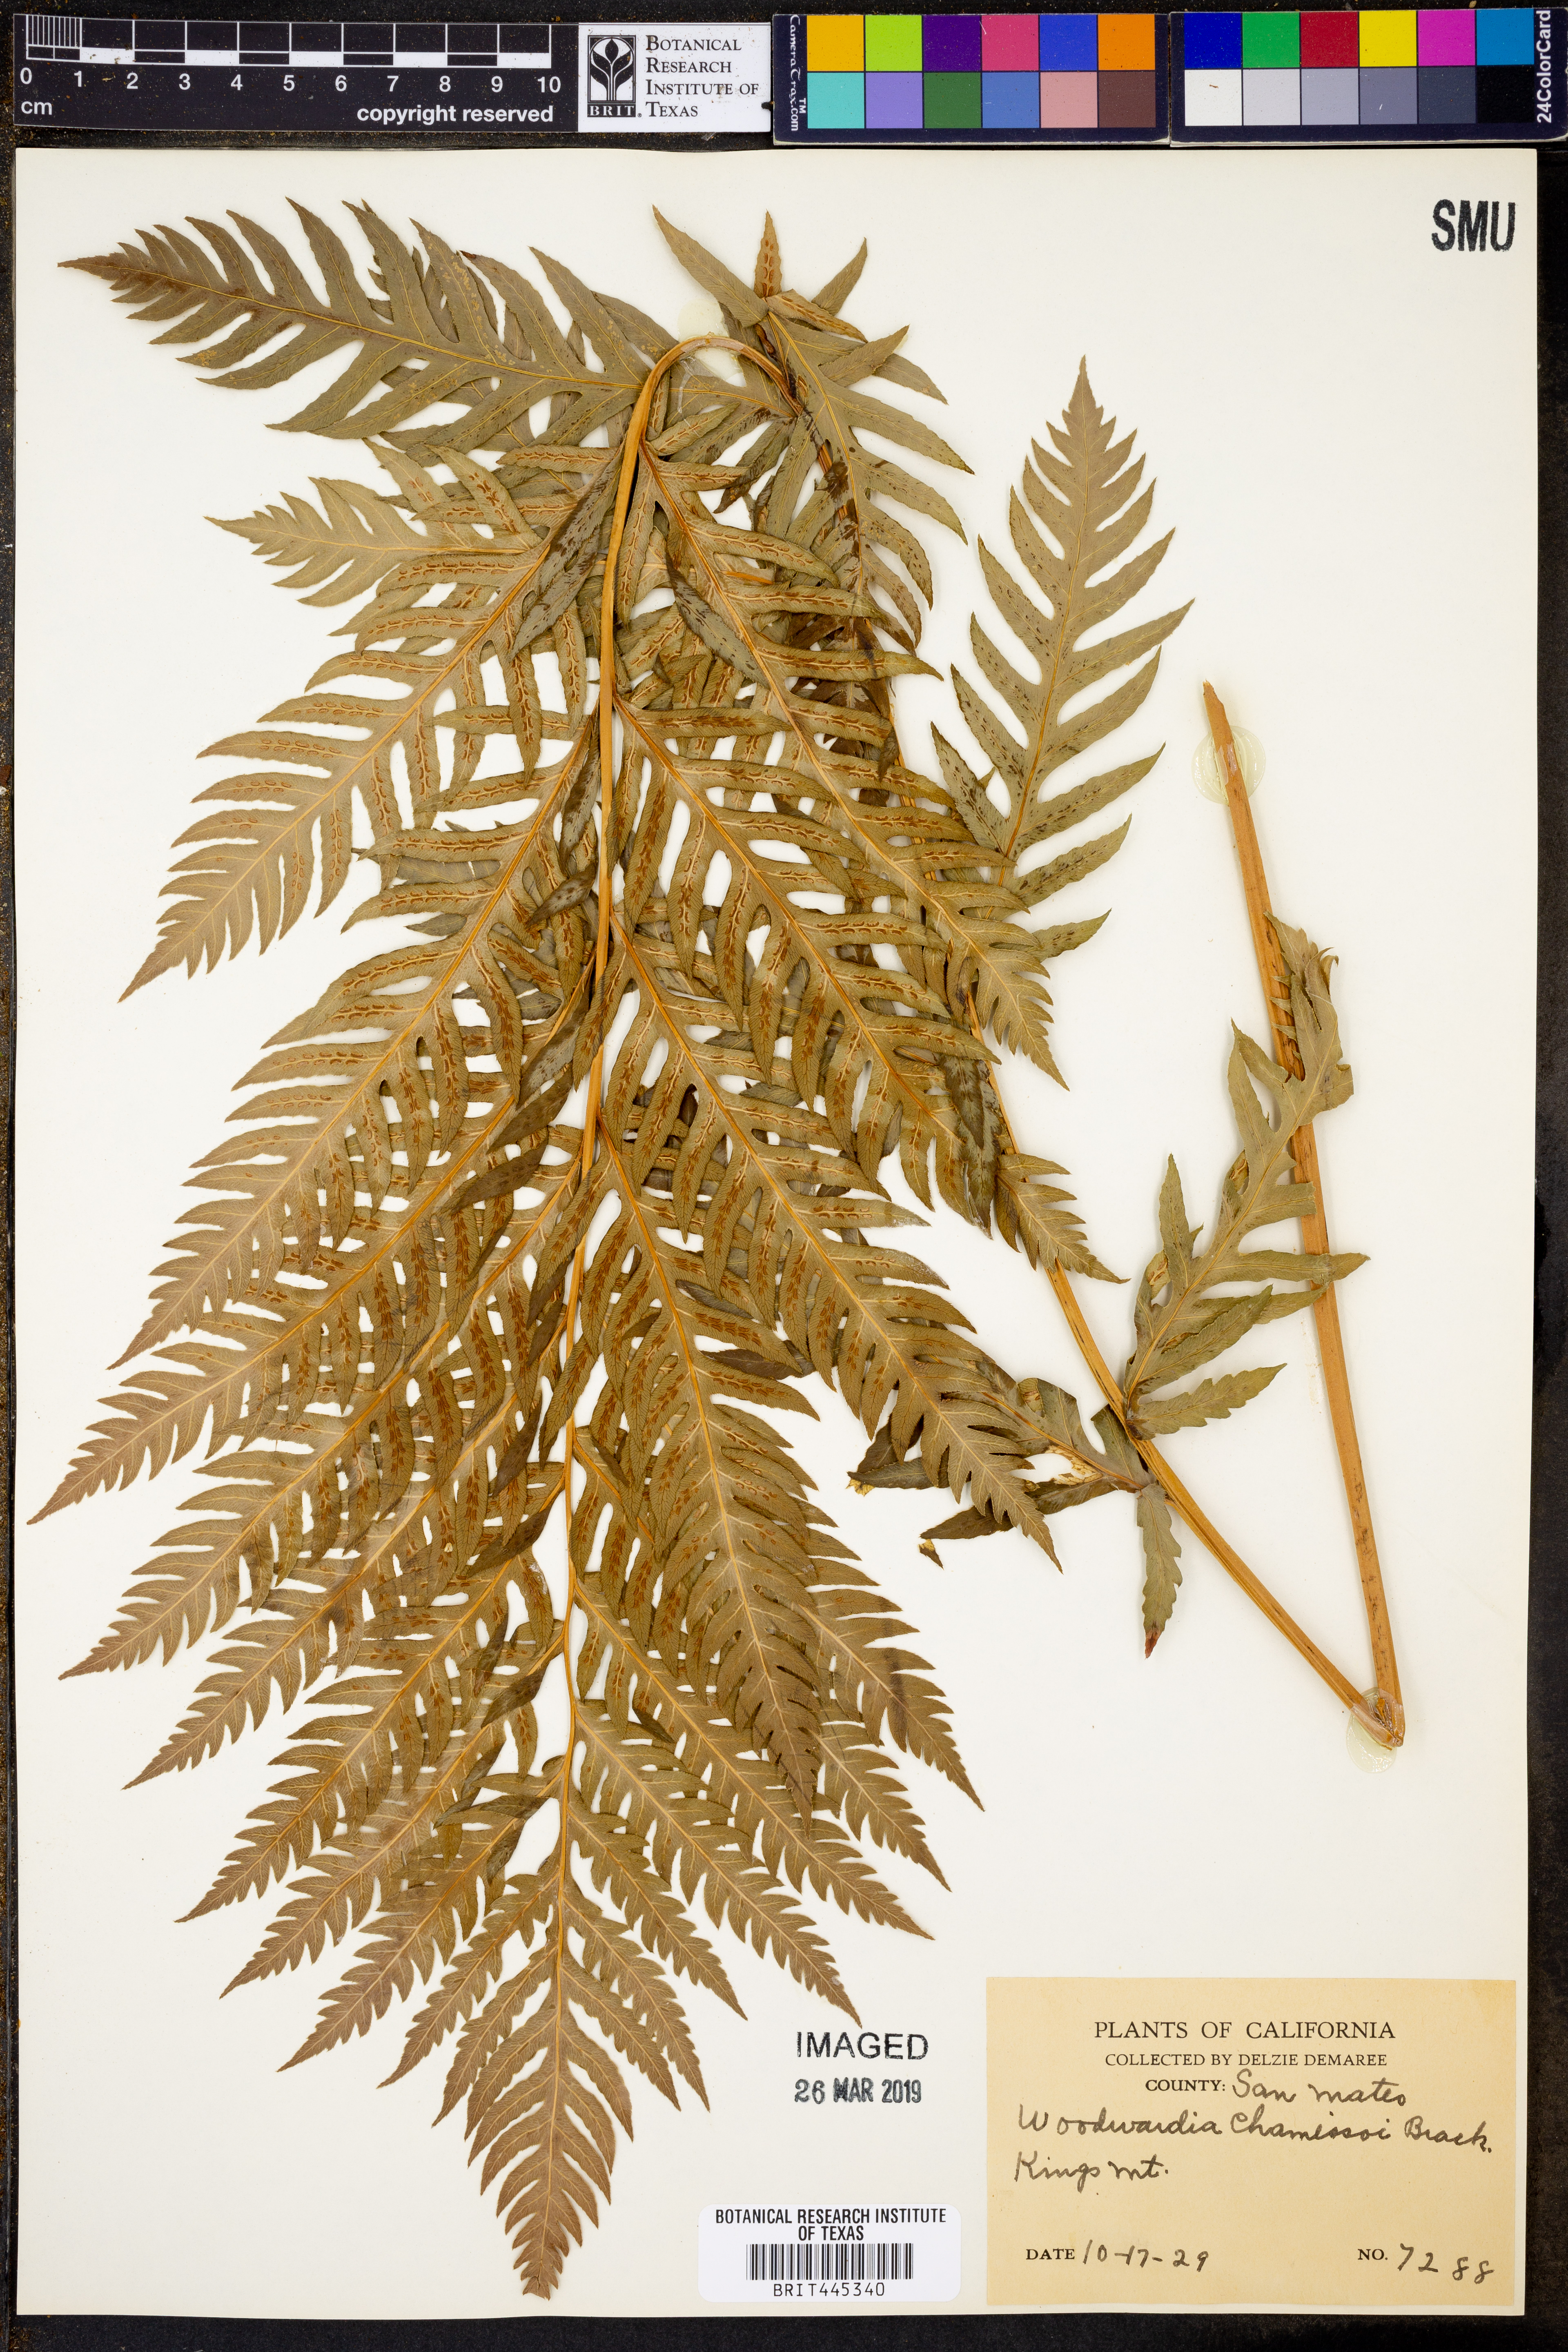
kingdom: Plantae
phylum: Tracheophyta
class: Polypodiopsida
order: Polypodiales
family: Blechnaceae
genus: Woodwardia
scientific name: Woodwardia fimbriata
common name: Giant chain fern
